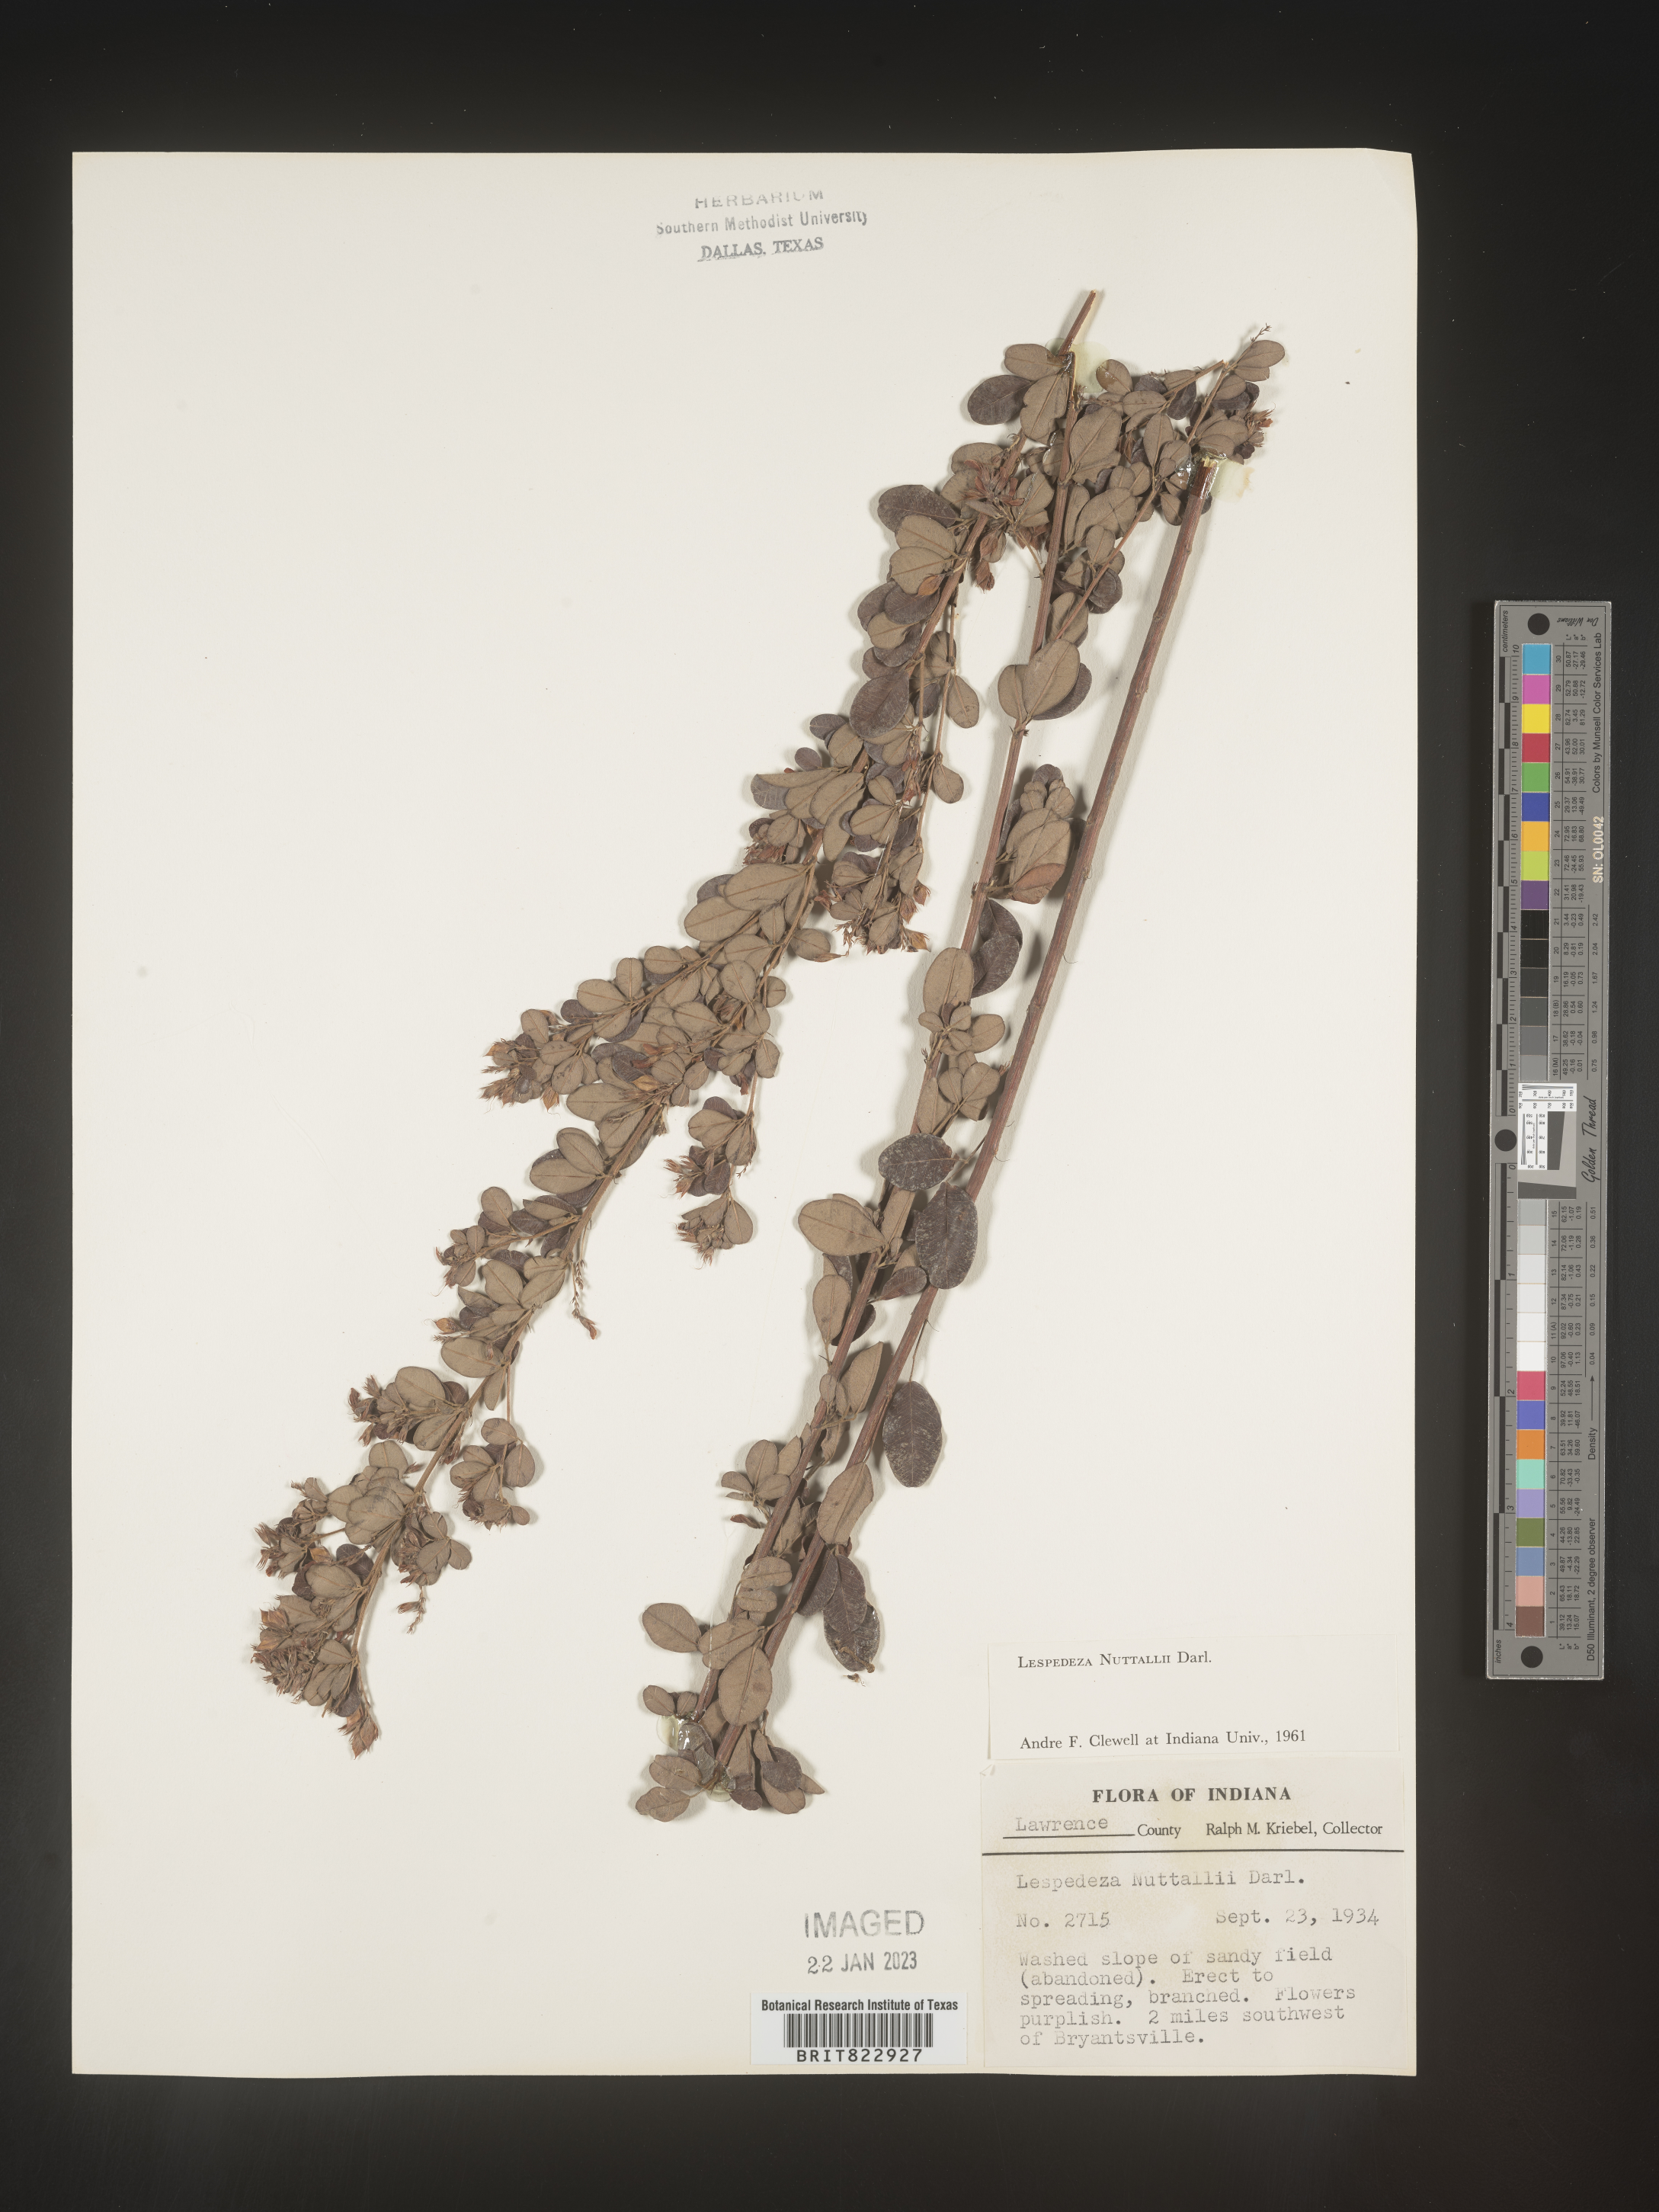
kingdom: Plantae
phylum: Tracheophyta
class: Magnoliopsida
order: Fabales
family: Fabaceae
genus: Lespedeza
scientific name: Lespedeza
